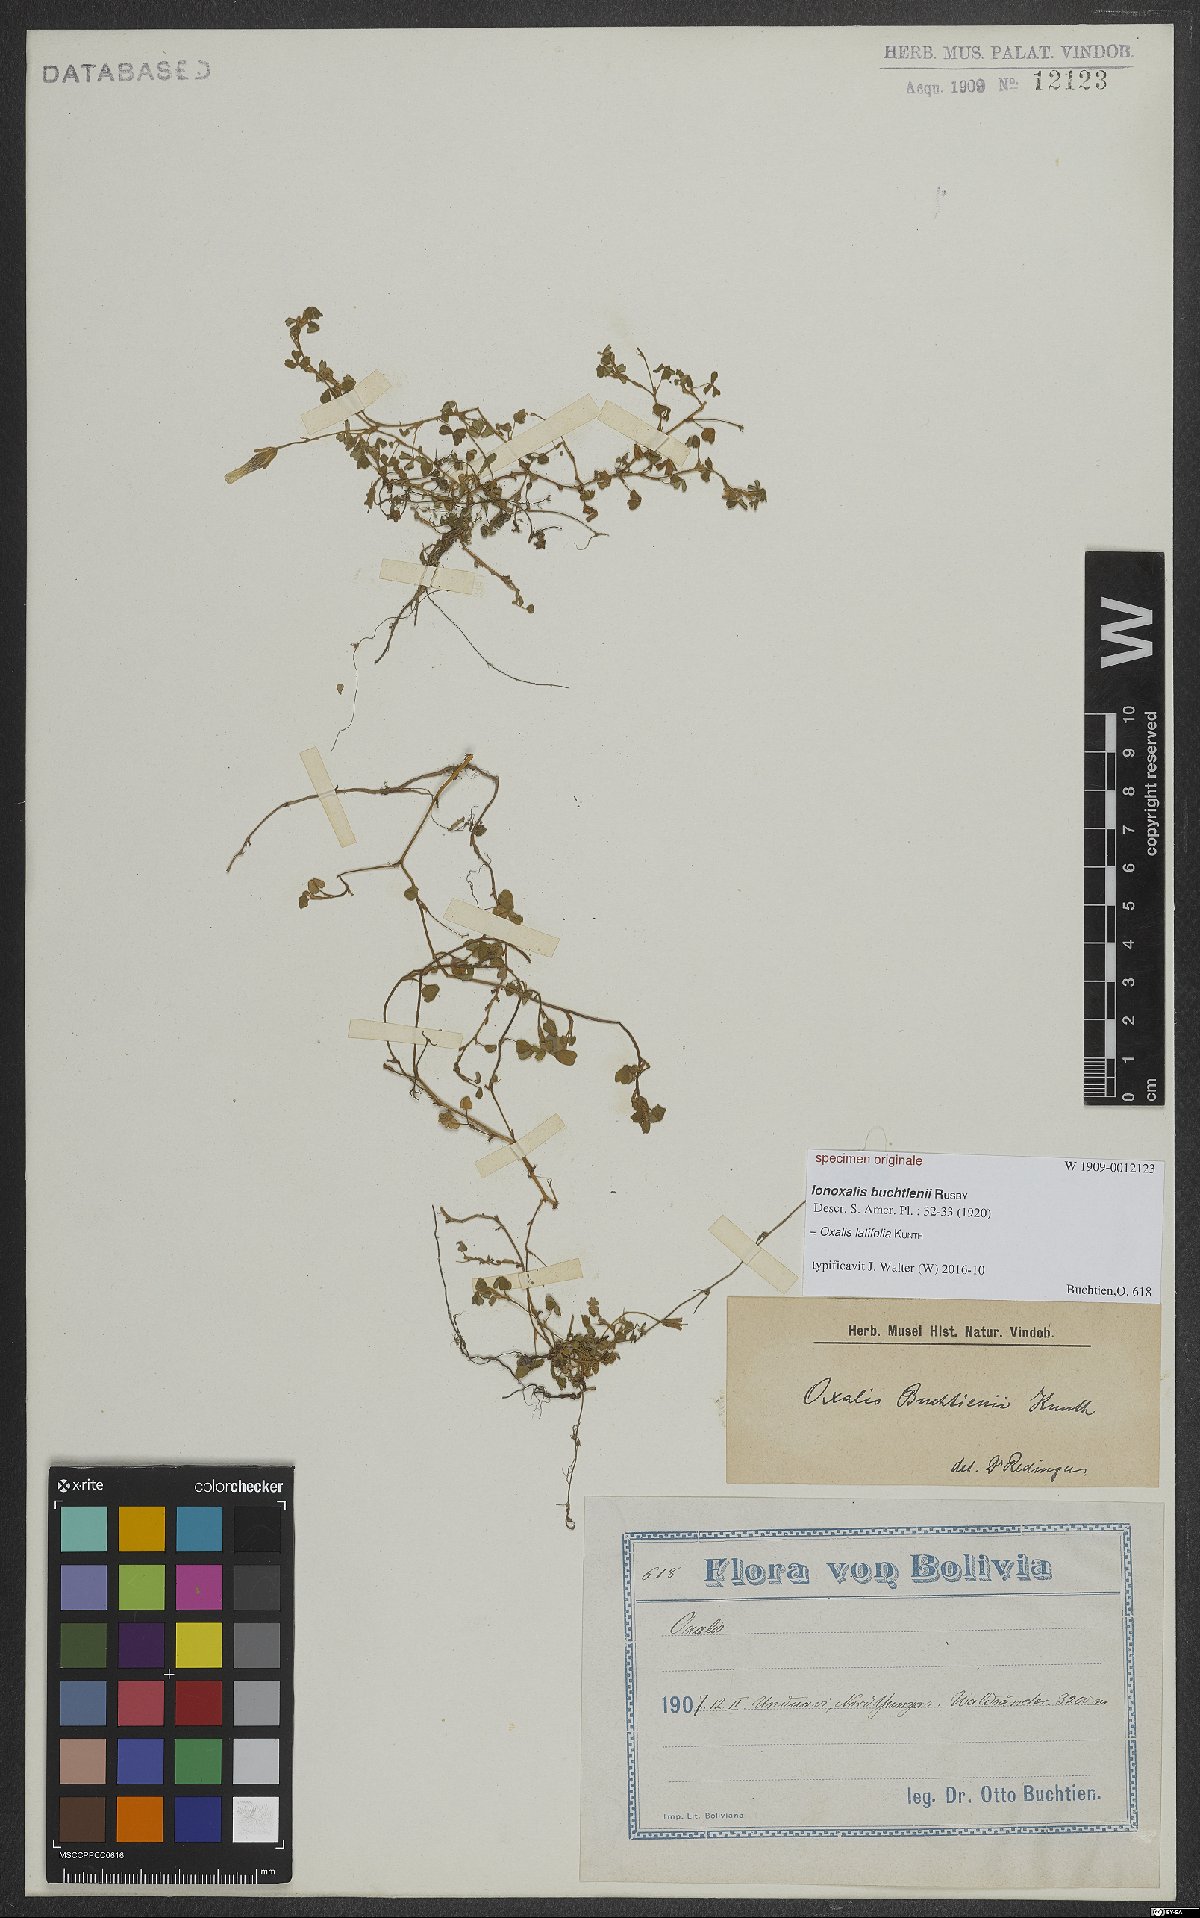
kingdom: Plantae
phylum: Tracheophyta
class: Magnoliopsida
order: Oxalidales
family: Oxalidaceae
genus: Oxalis
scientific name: Oxalis latifolia
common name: Garden pink-sorrel
